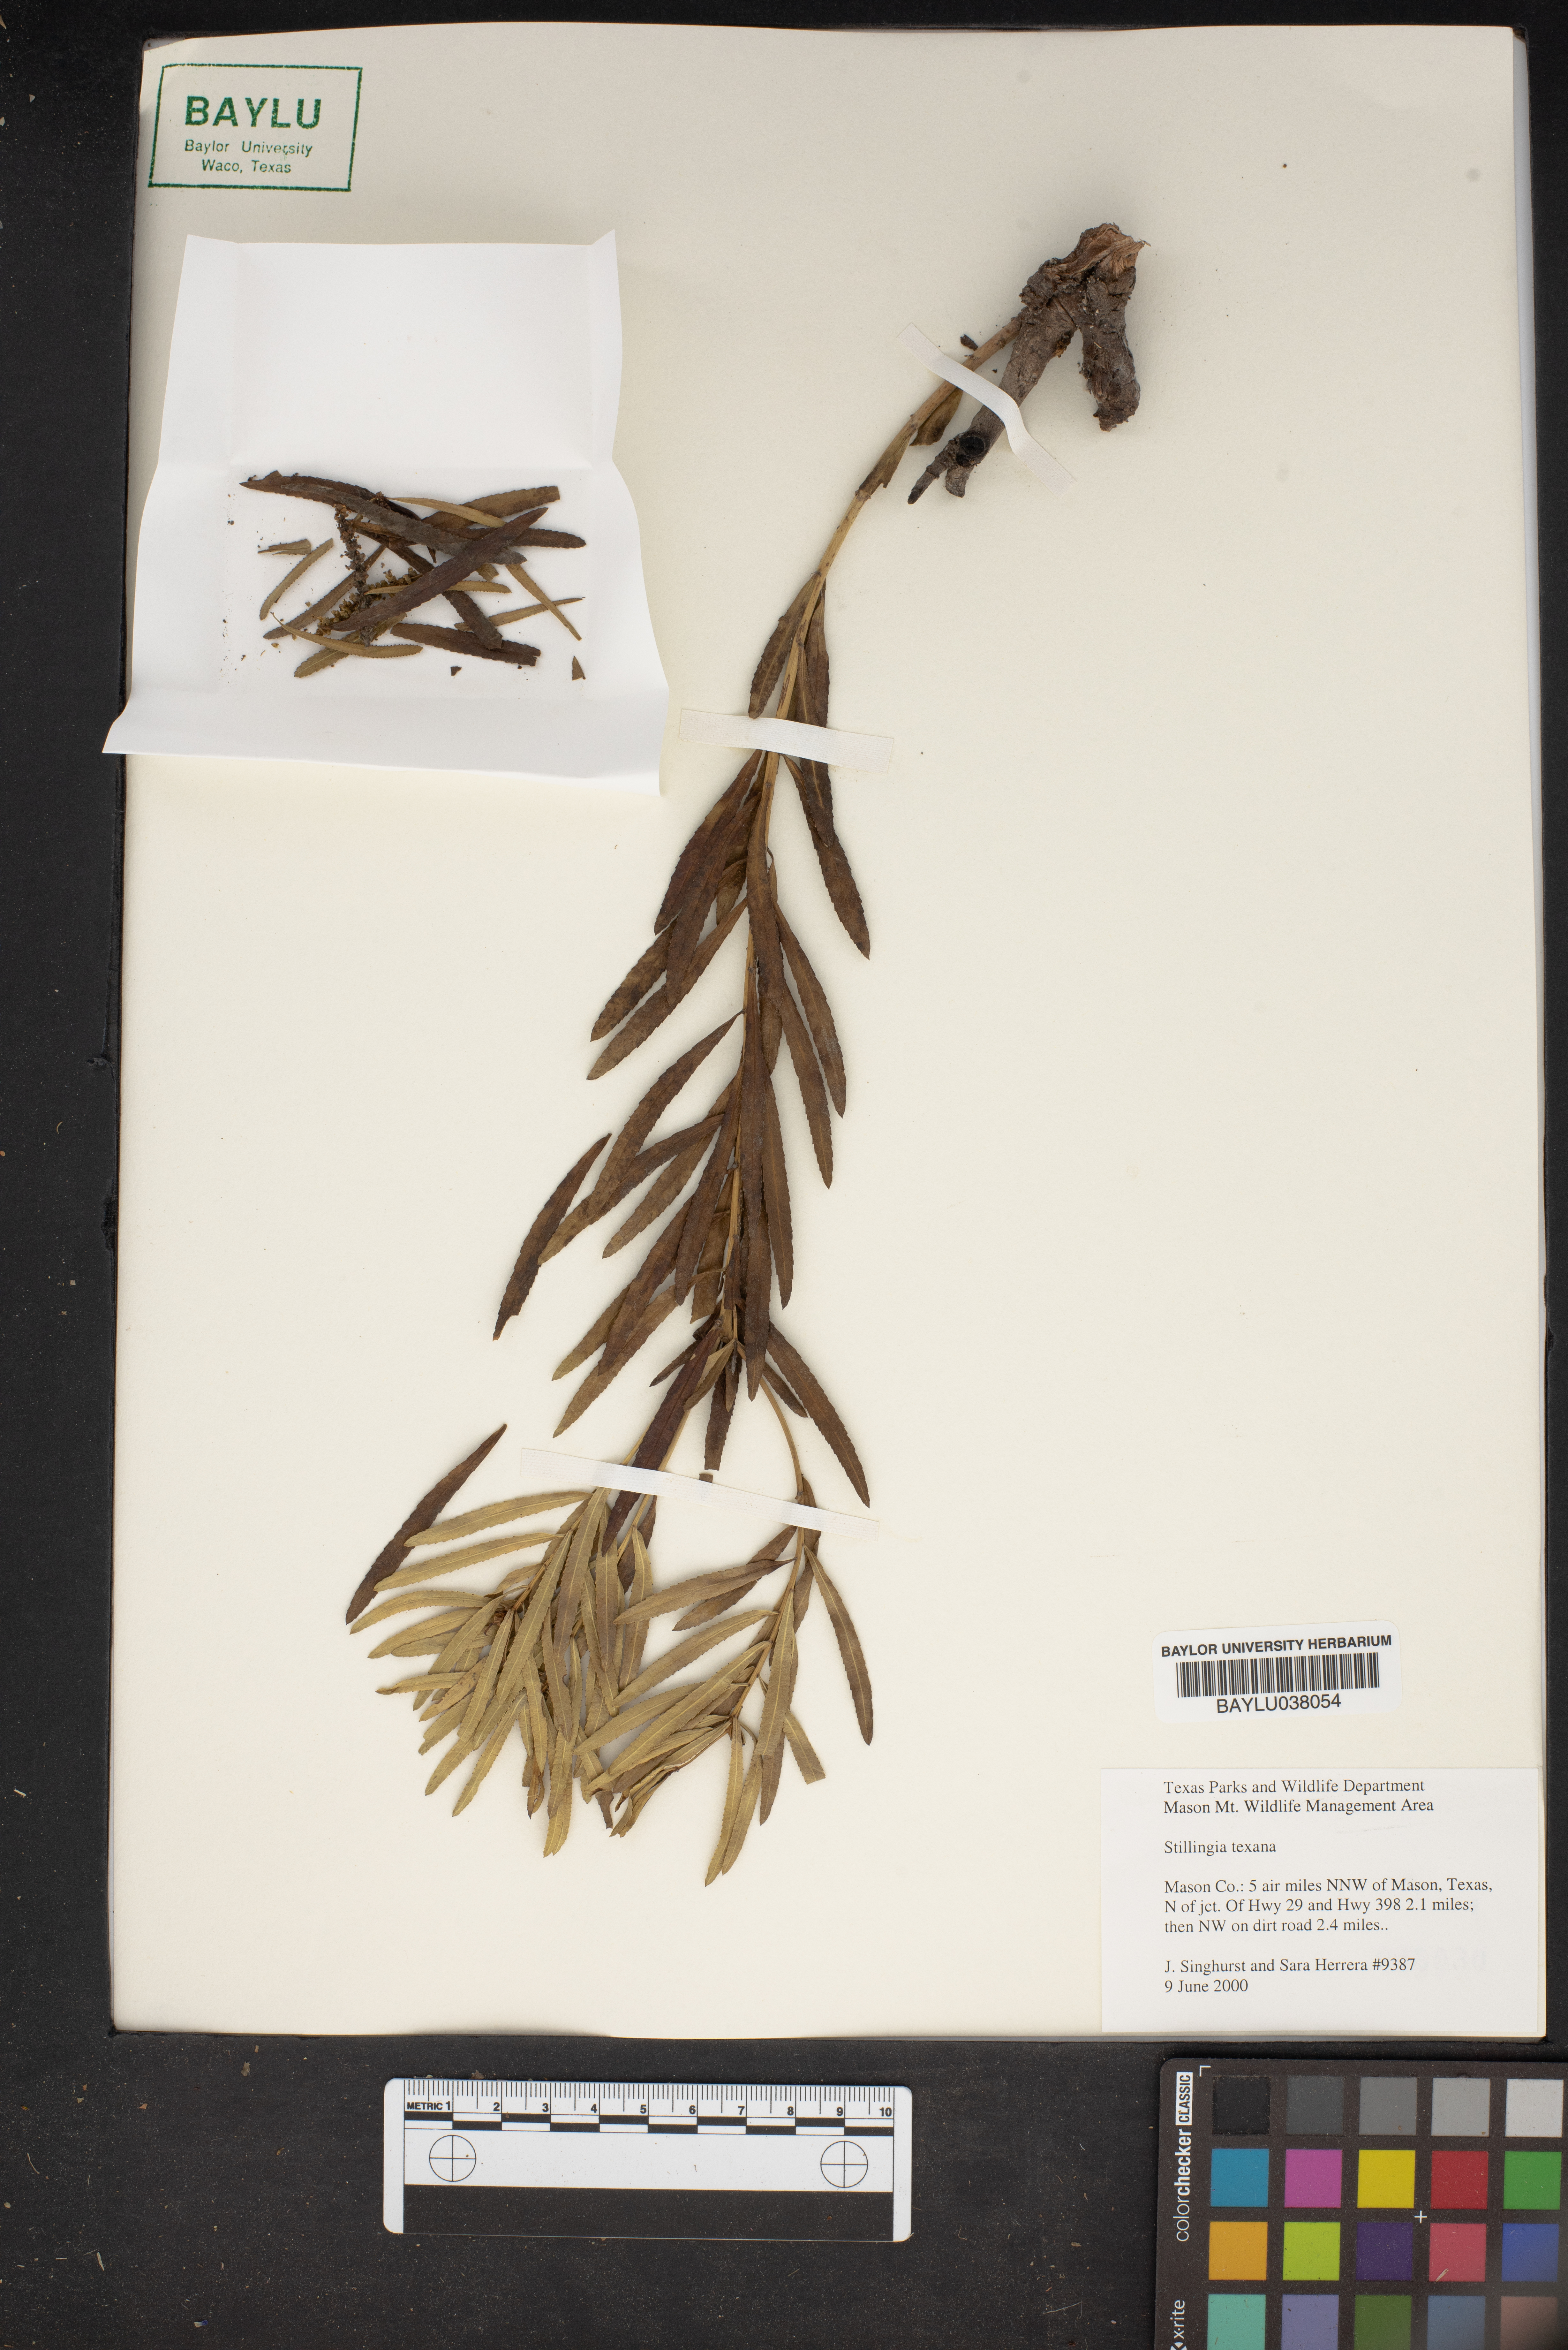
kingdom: Plantae
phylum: Tracheophyta
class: Magnoliopsida
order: Malpighiales
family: Euphorbiaceae
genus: Stillingia
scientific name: Stillingia texana
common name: Texas stillingia
